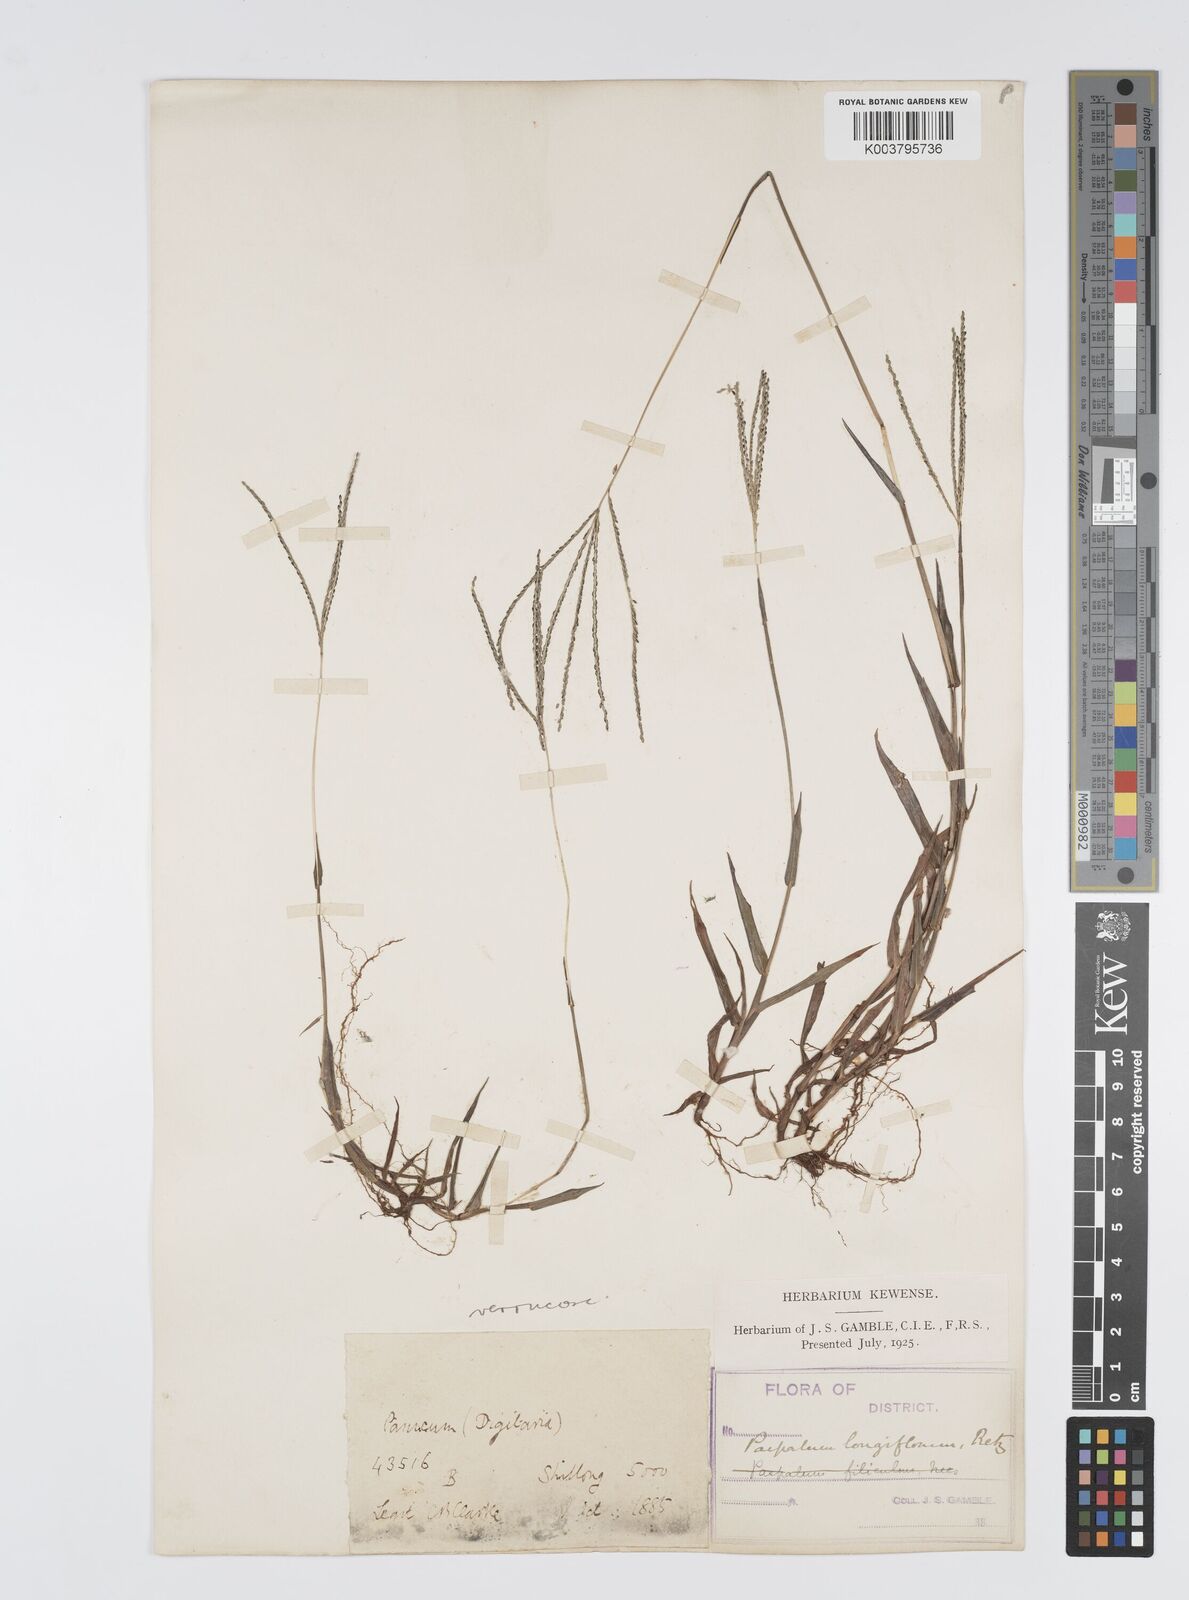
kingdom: Plantae
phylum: Tracheophyta
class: Liliopsida
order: Poales
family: Poaceae
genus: Digitaria
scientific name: Digitaria violascens
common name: Violet crabgrass
